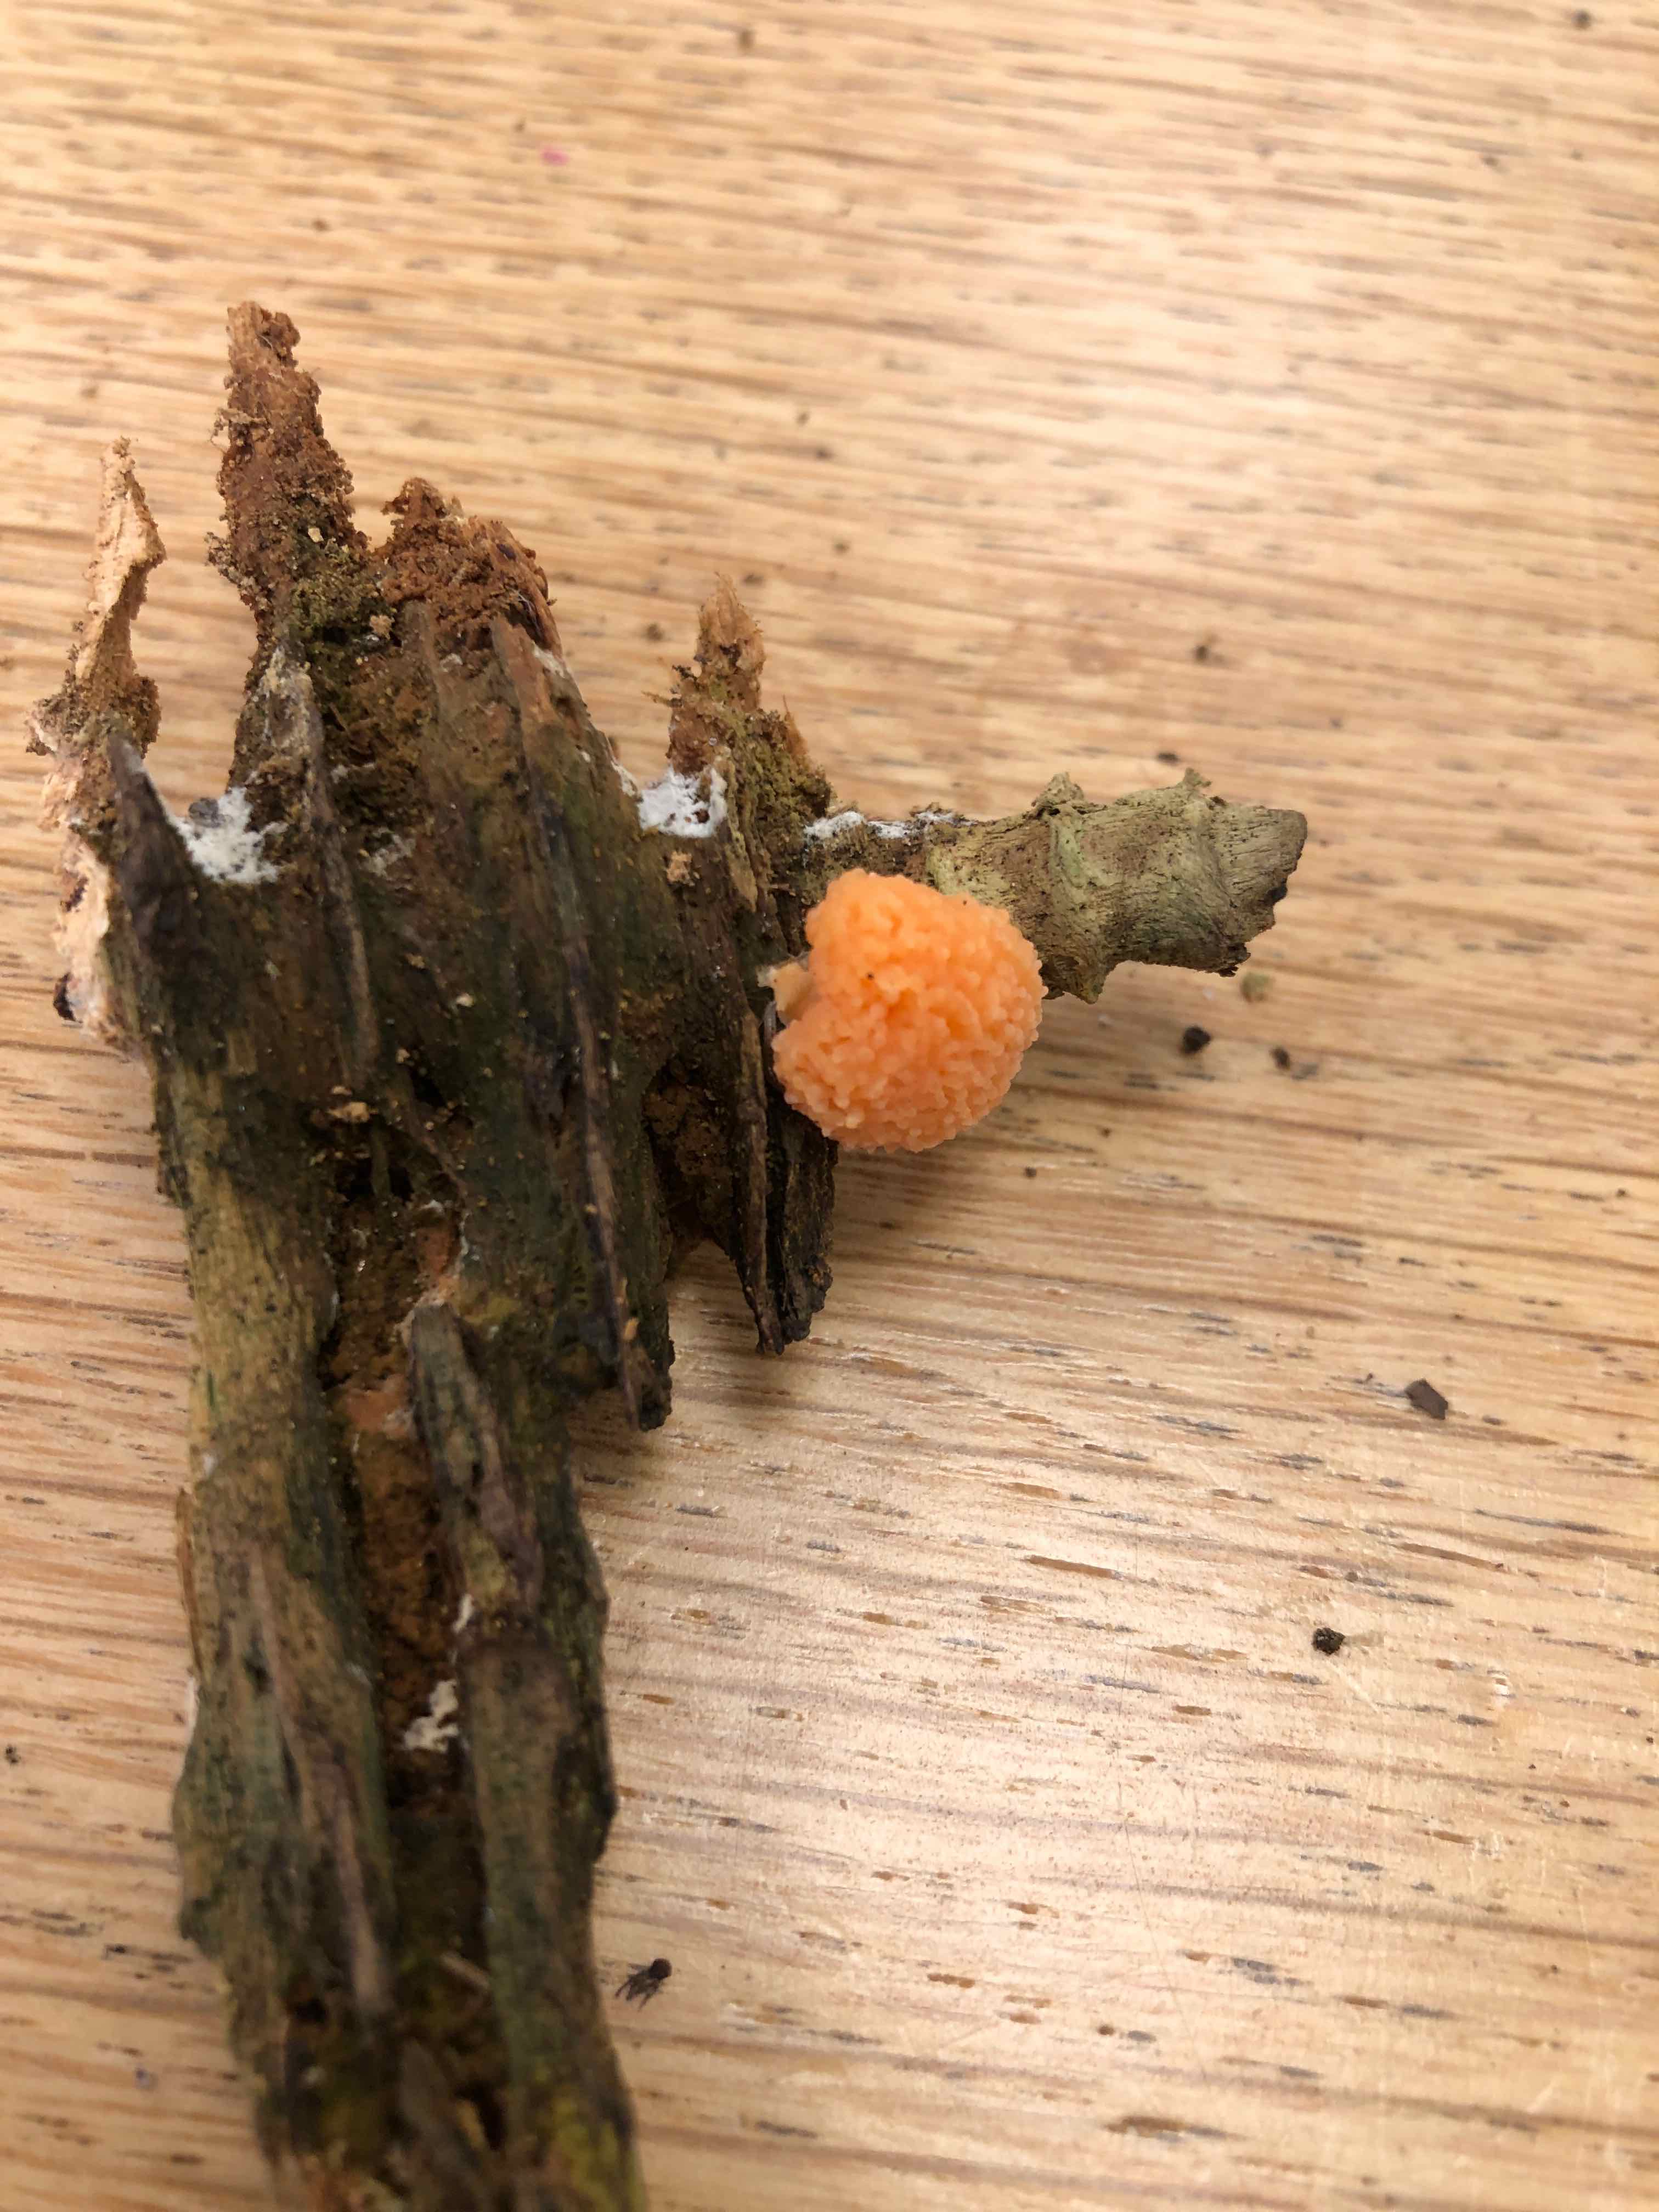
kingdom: Protozoa
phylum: Mycetozoa
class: Myxomycetes
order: Cribrariales
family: Tubiferaceae
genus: Tubifera
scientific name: Tubifera ferruginosa
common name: kanel-støvrør
